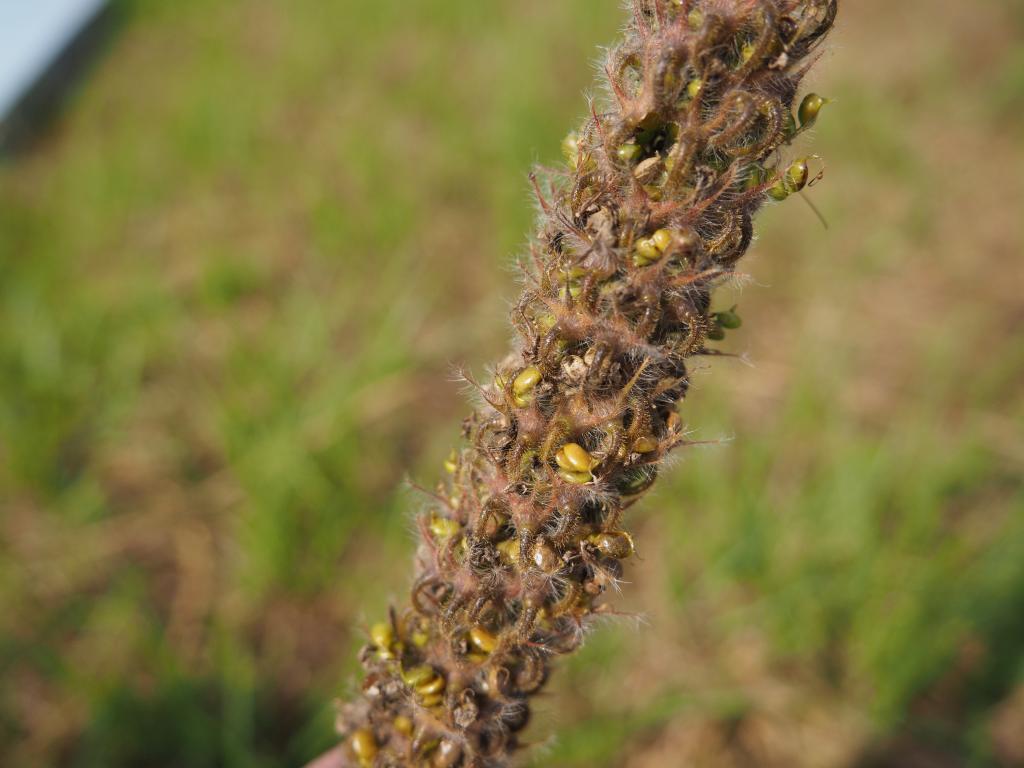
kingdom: Plantae
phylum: Tracheophyta
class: Magnoliopsida
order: Fabales
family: Fabaceae
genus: Uraria
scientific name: Uraria crinita
